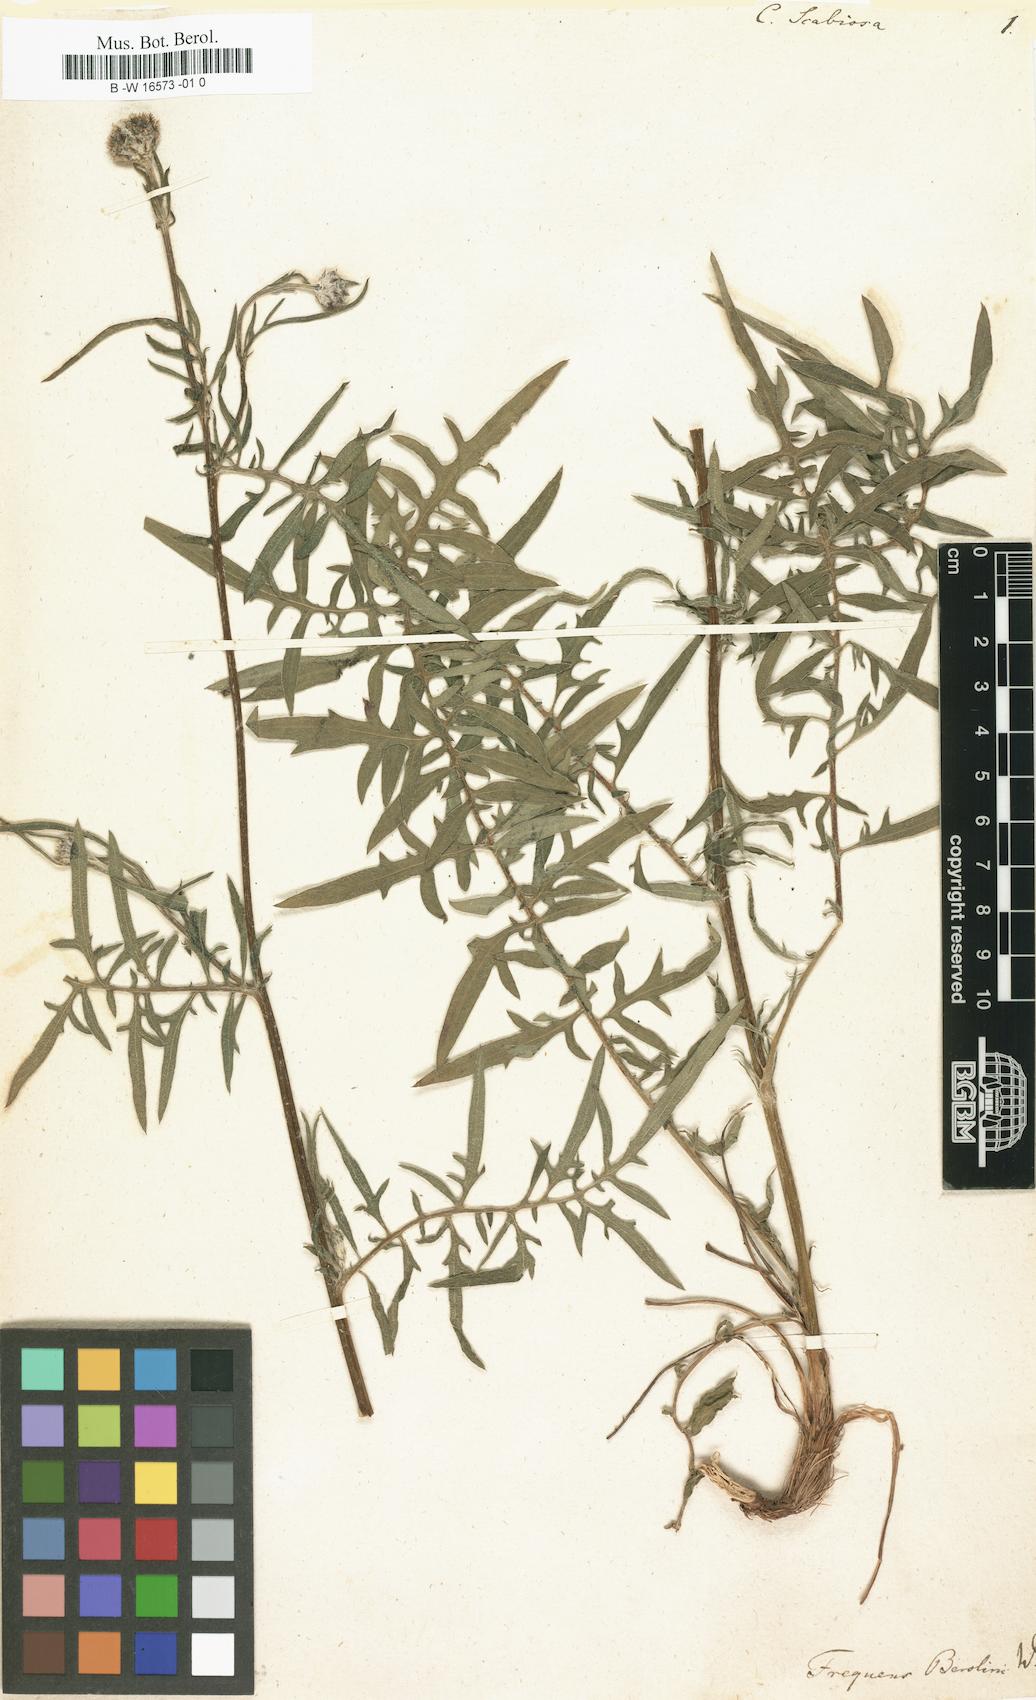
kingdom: Plantae
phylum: Tracheophyta
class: Magnoliopsida
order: Asterales
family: Asteraceae
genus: Centaurea
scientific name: Centaurea scabiosa
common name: Greater knapweed
